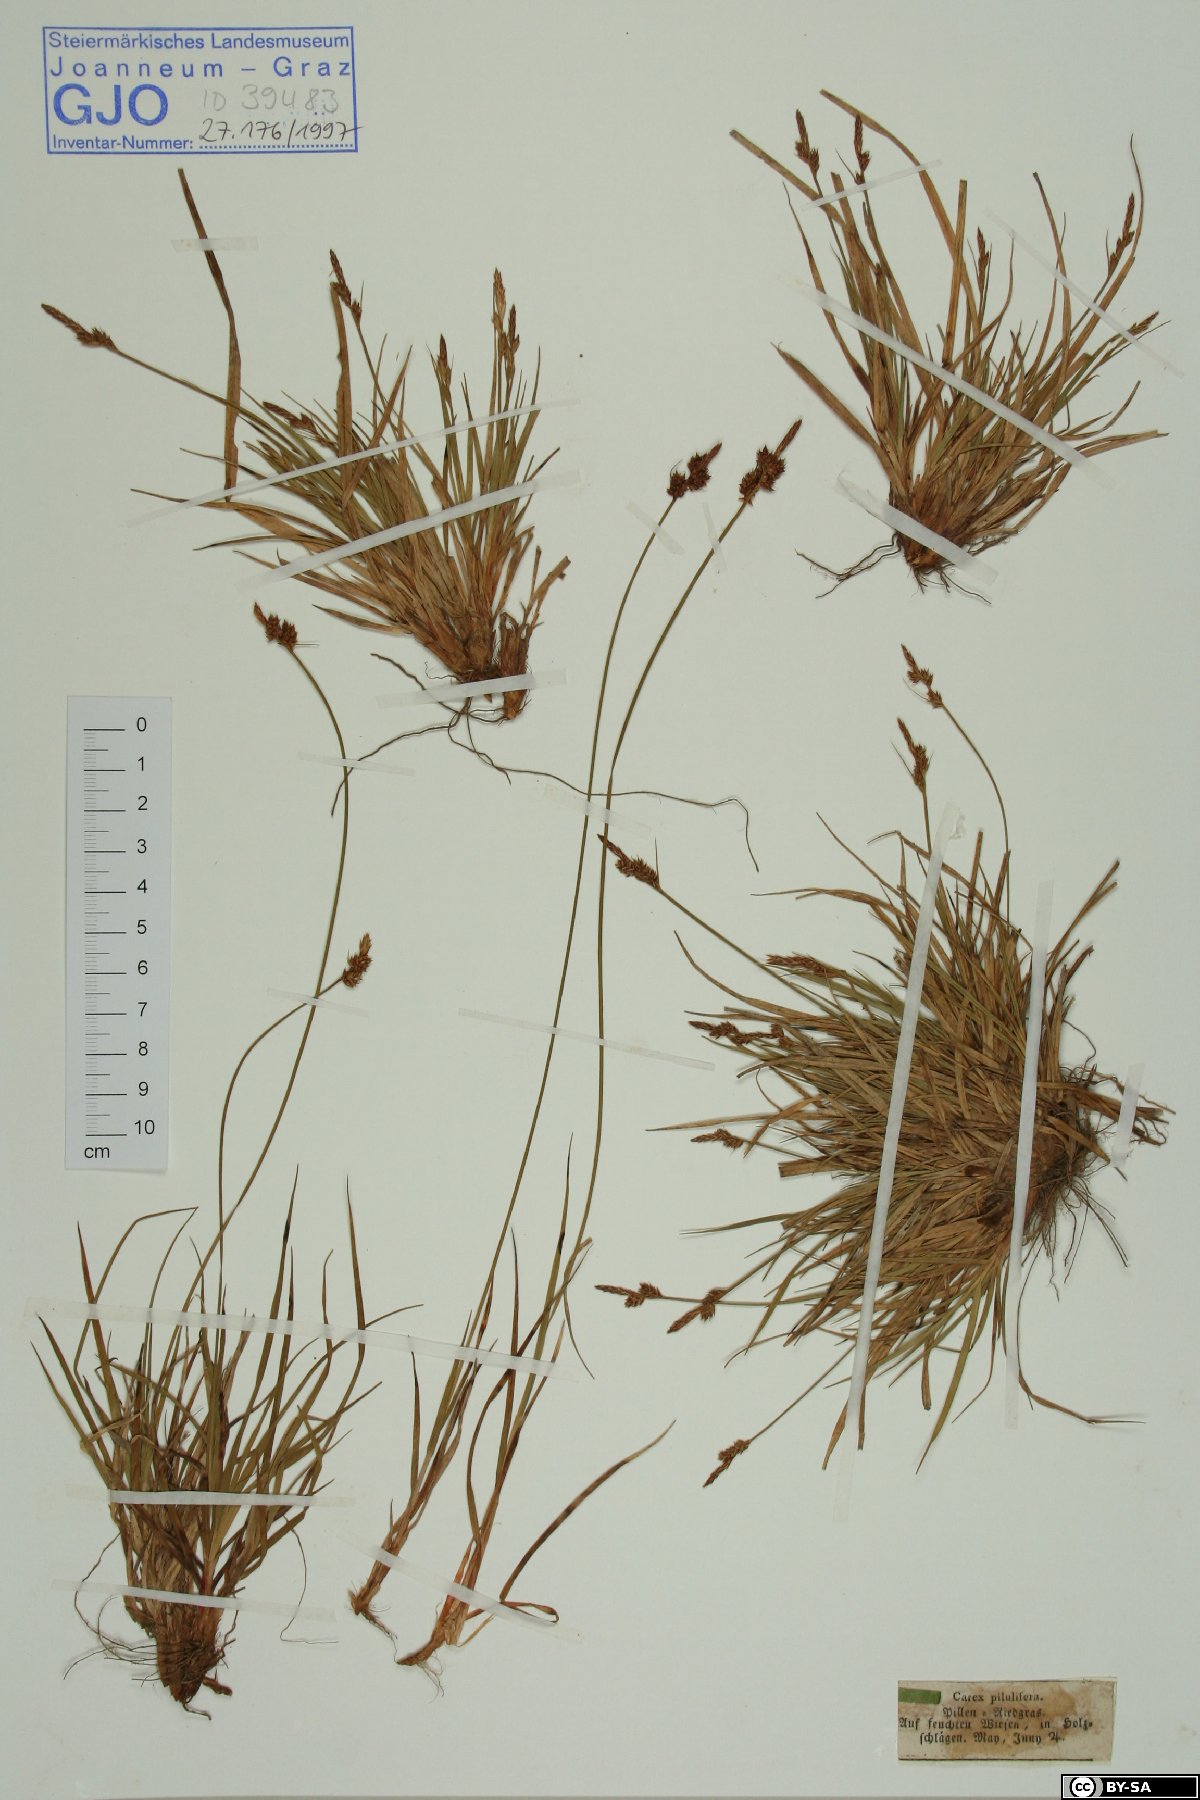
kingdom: Plantae
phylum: Tracheophyta
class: Liliopsida
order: Poales
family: Cyperaceae
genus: Carex
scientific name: Carex pilulifera
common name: Pill sedge
